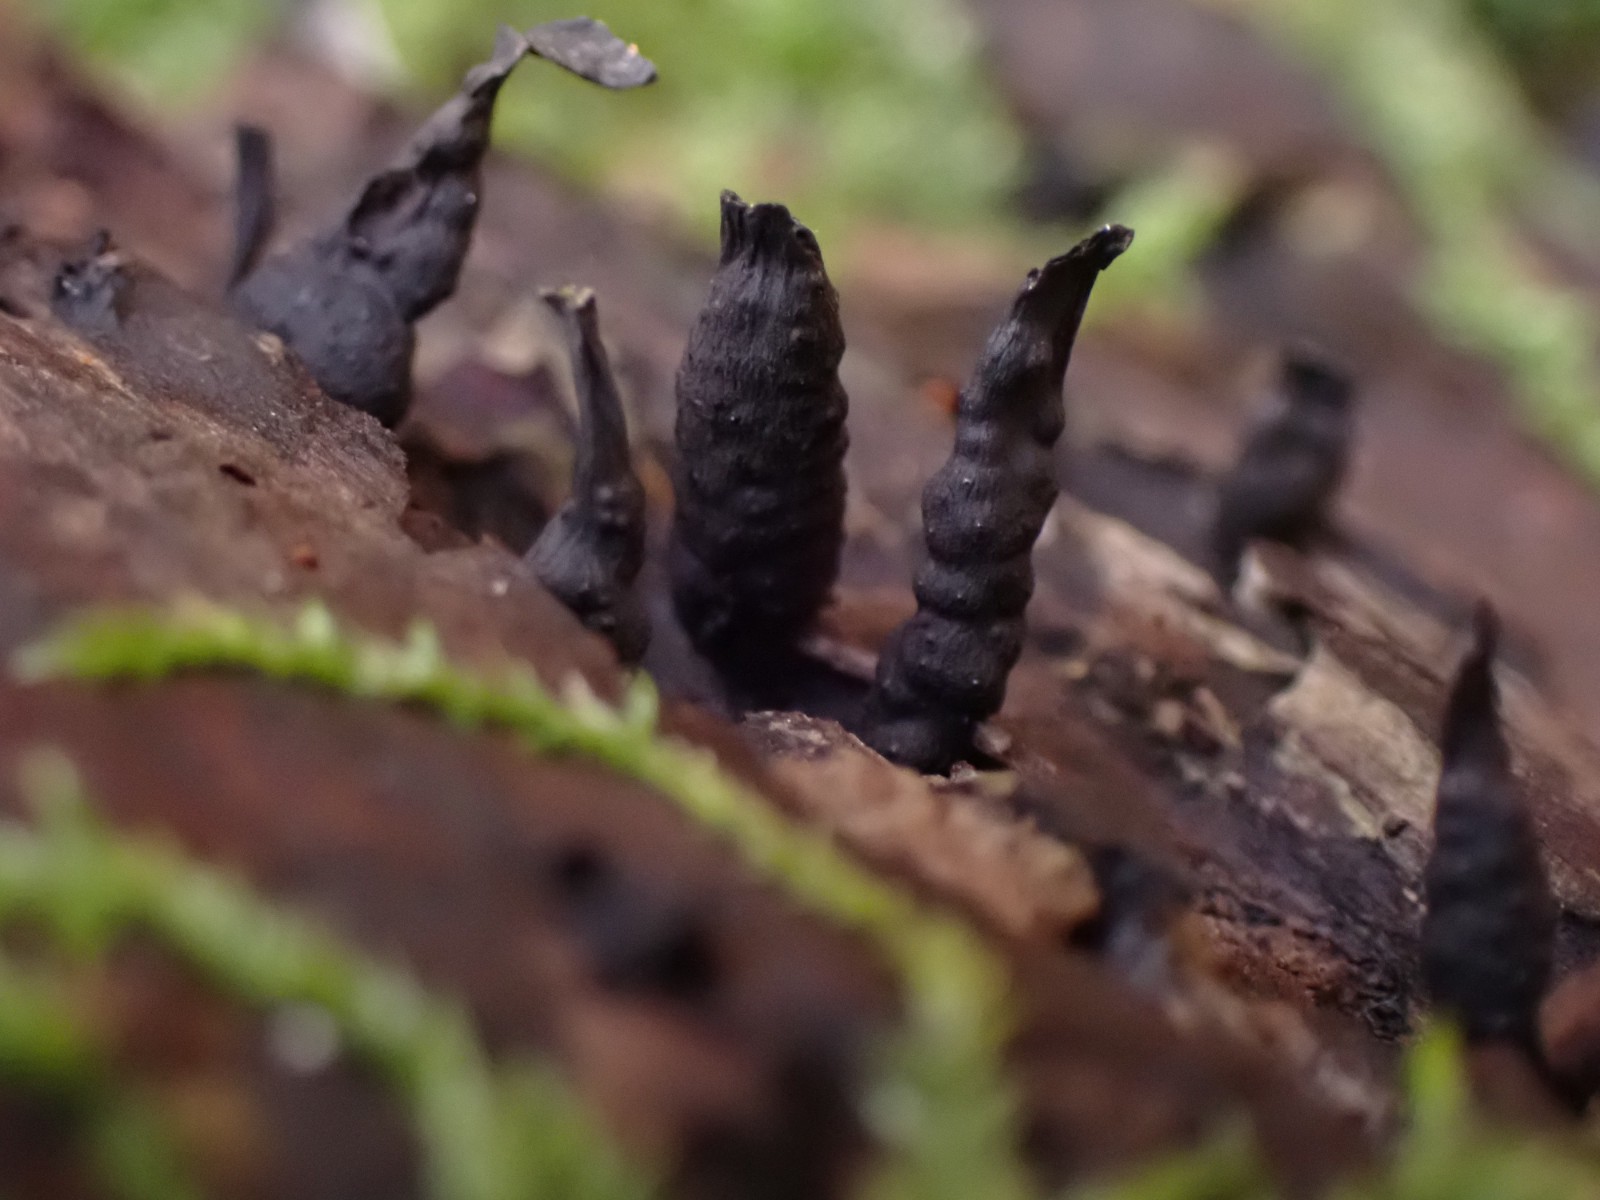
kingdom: Fungi
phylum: Ascomycota
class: Sordariomycetes
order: Xylariales
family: Xylariaceae
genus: Xylaria
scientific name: Xylaria hypoxylon
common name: grenet stødsvamp
